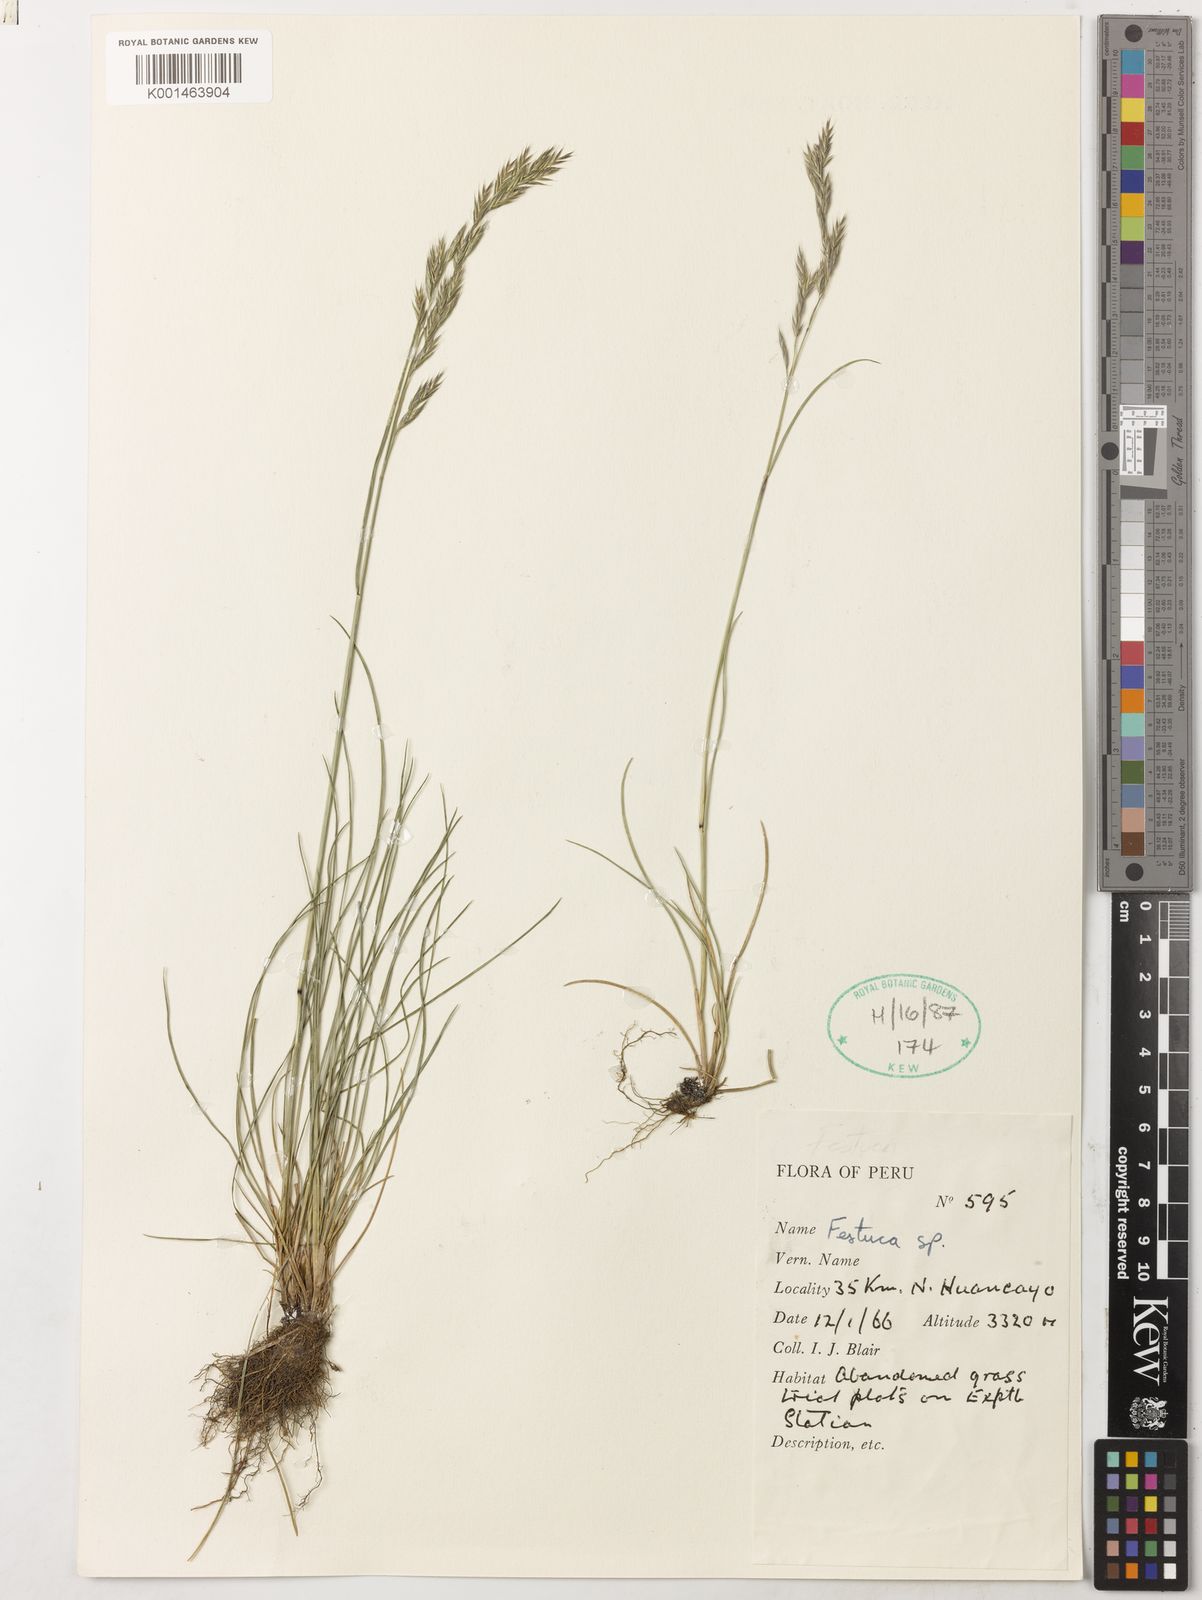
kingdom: Plantae
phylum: Tracheophyta
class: Liliopsida
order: Poales
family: Poaceae
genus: Festuca
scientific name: Festuca rubra
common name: Red fescue
